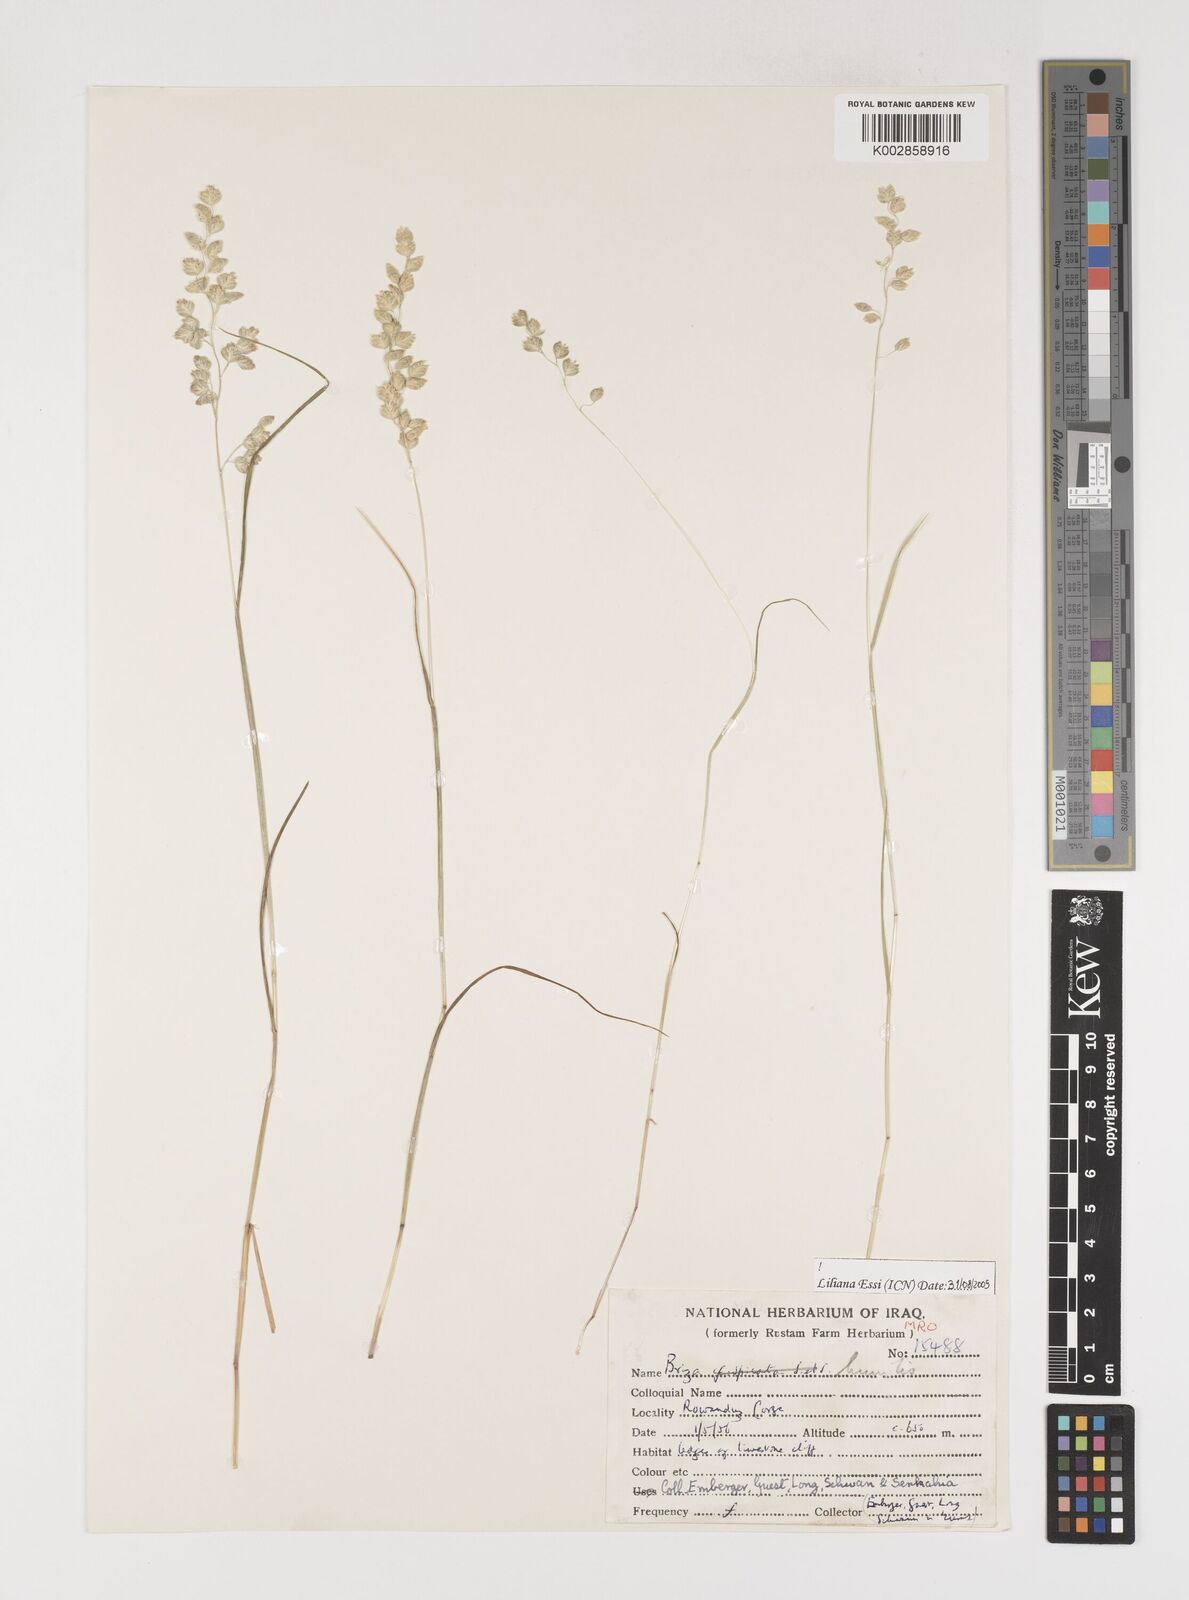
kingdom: Plantae
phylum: Tracheophyta
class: Liliopsida
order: Poales
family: Poaceae
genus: Briza
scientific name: Briza humilis
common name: Spiked quaking grass
